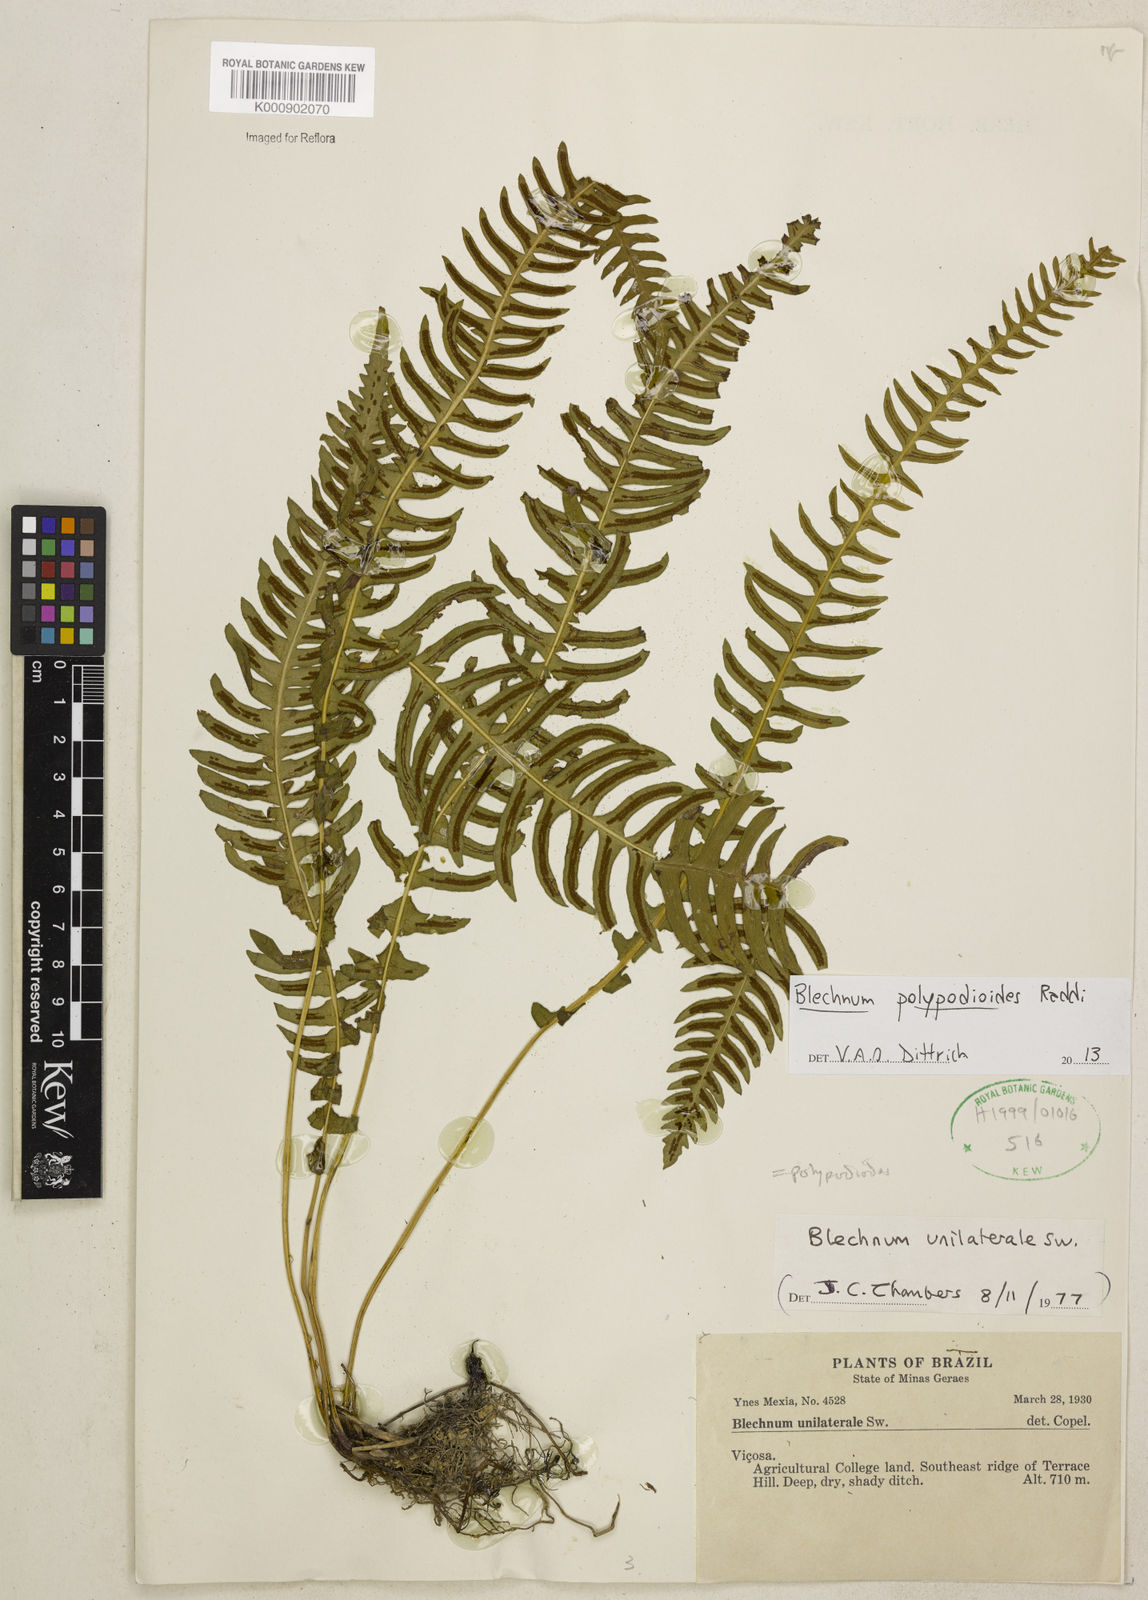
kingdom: Plantae
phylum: Tracheophyta
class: Polypodiopsida
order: Polypodiales
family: Blechnaceae
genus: Blechnum
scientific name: Blechnum polypodioides
